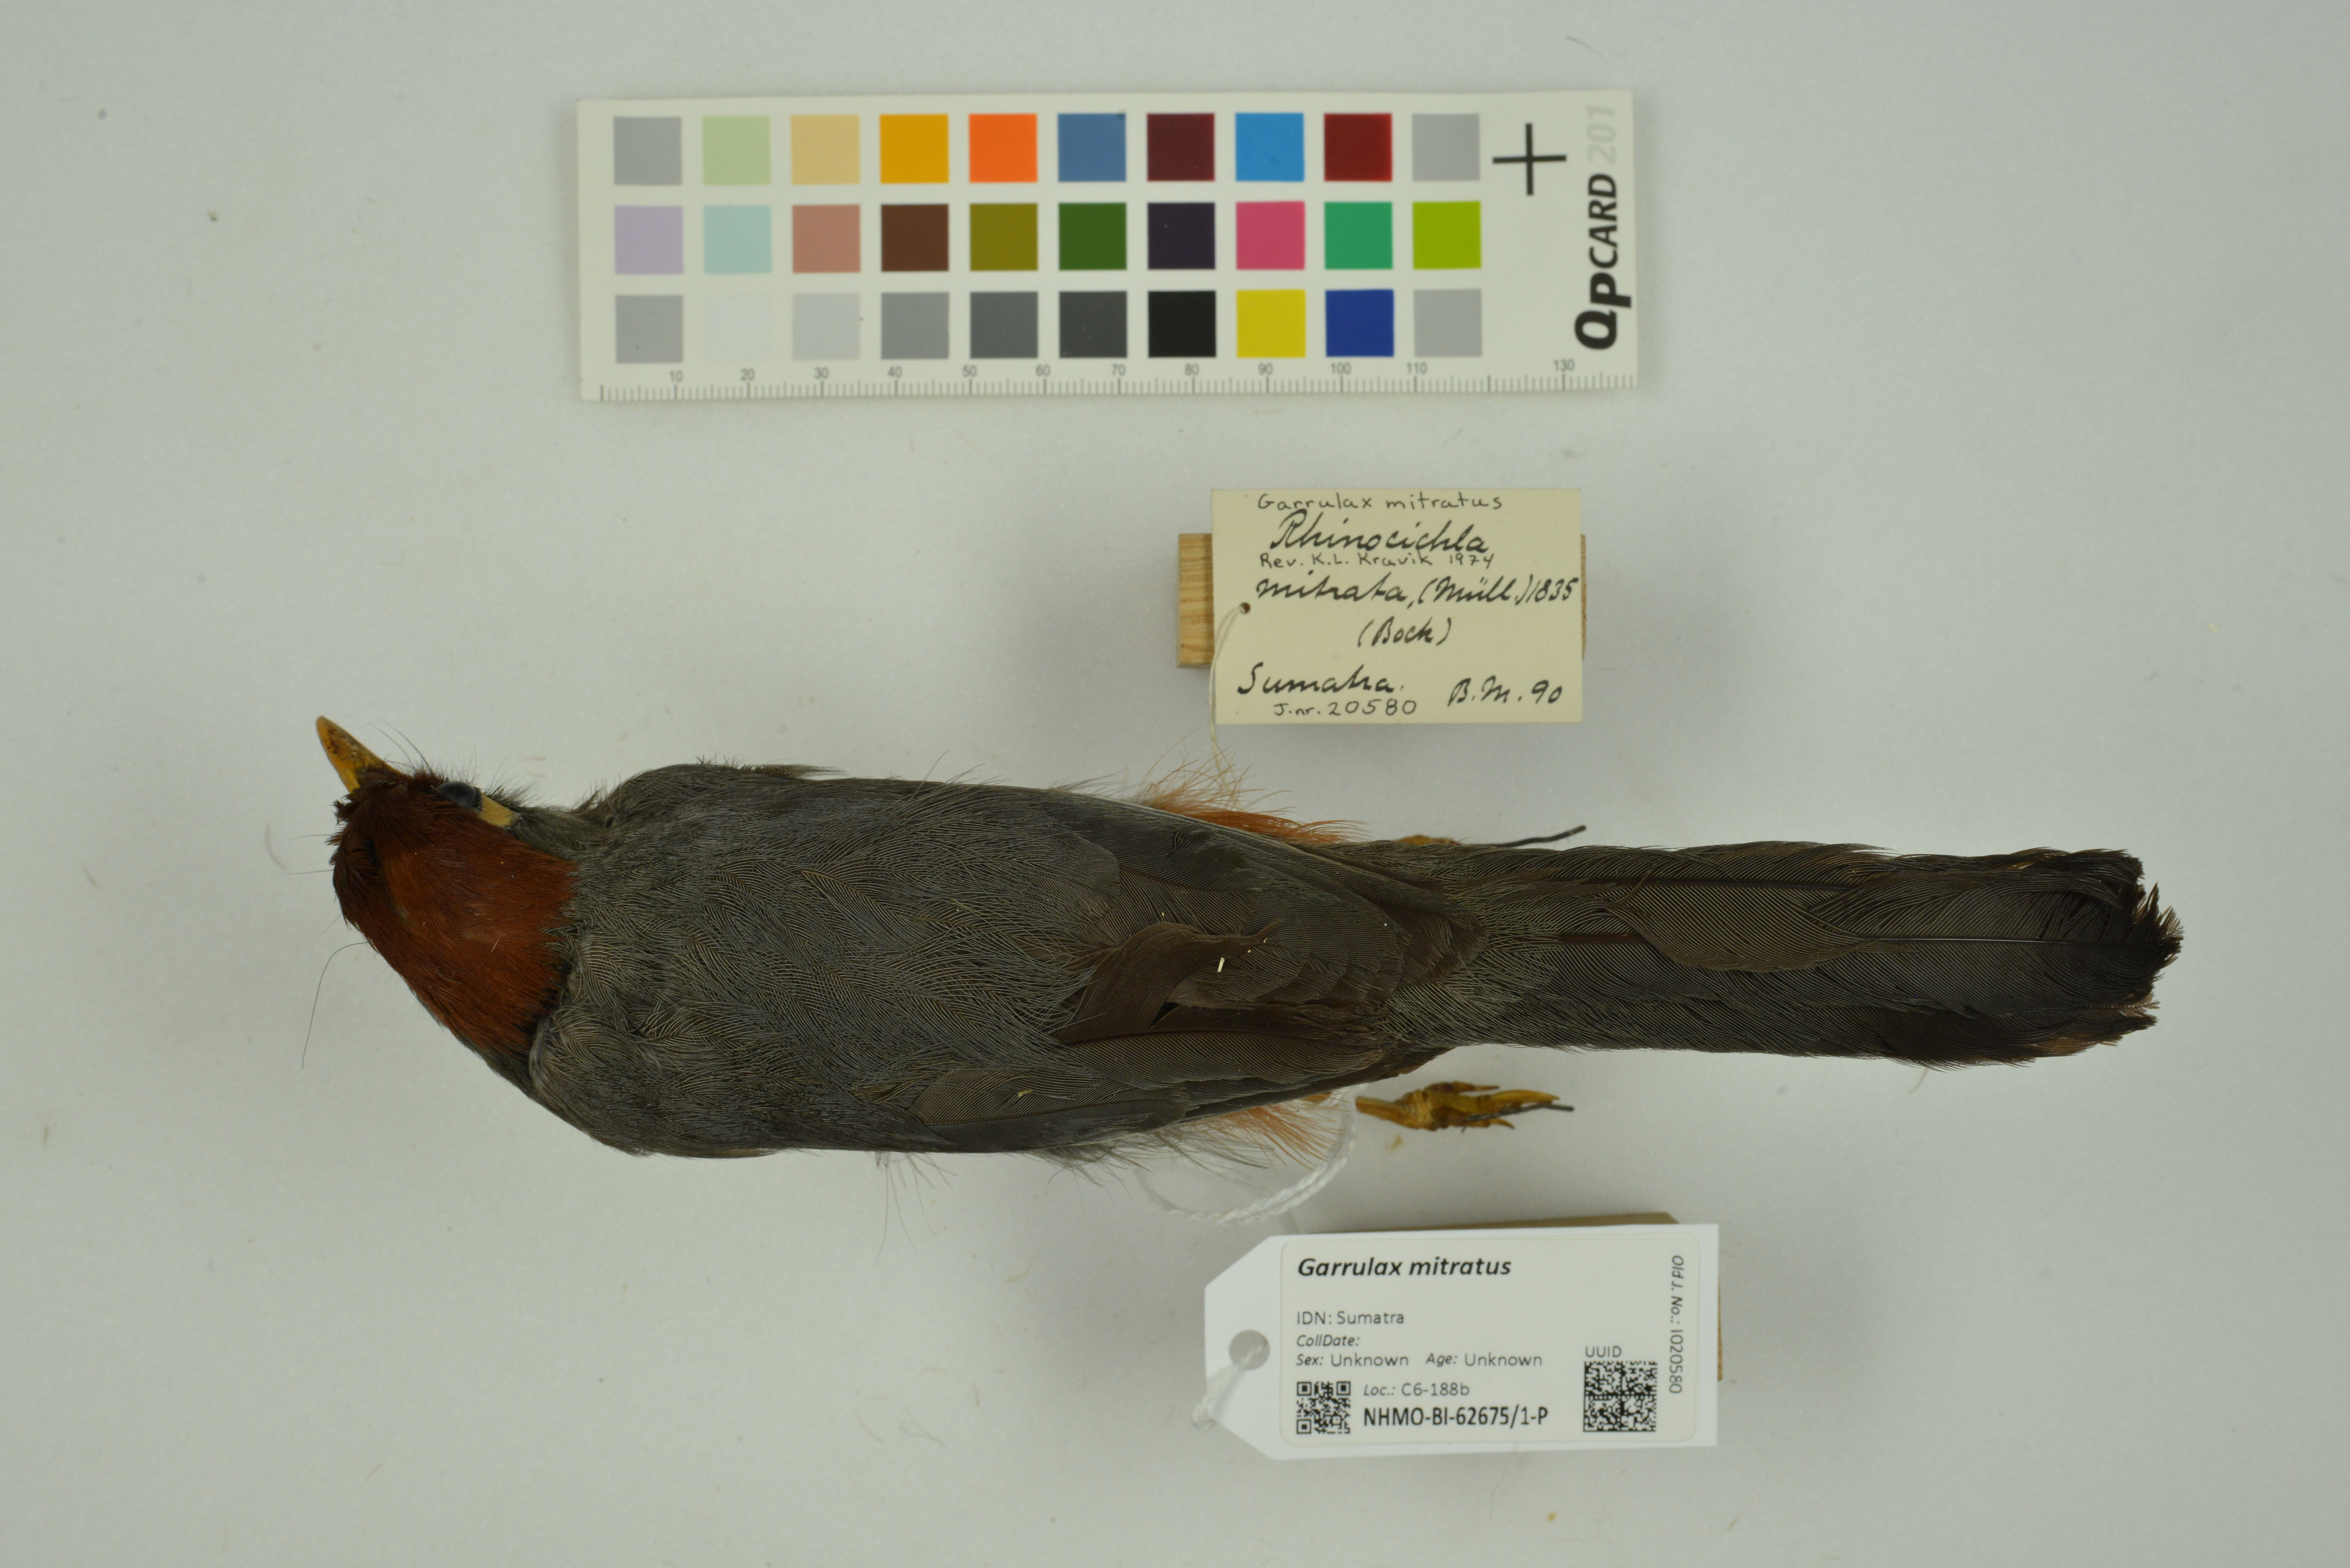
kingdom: Animalia
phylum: Chordata
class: Aves
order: Passeriformes
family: Leiothrichidae
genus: Garrulax
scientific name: Garrulax mitratus
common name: Chestnut-capped laughingthrush
